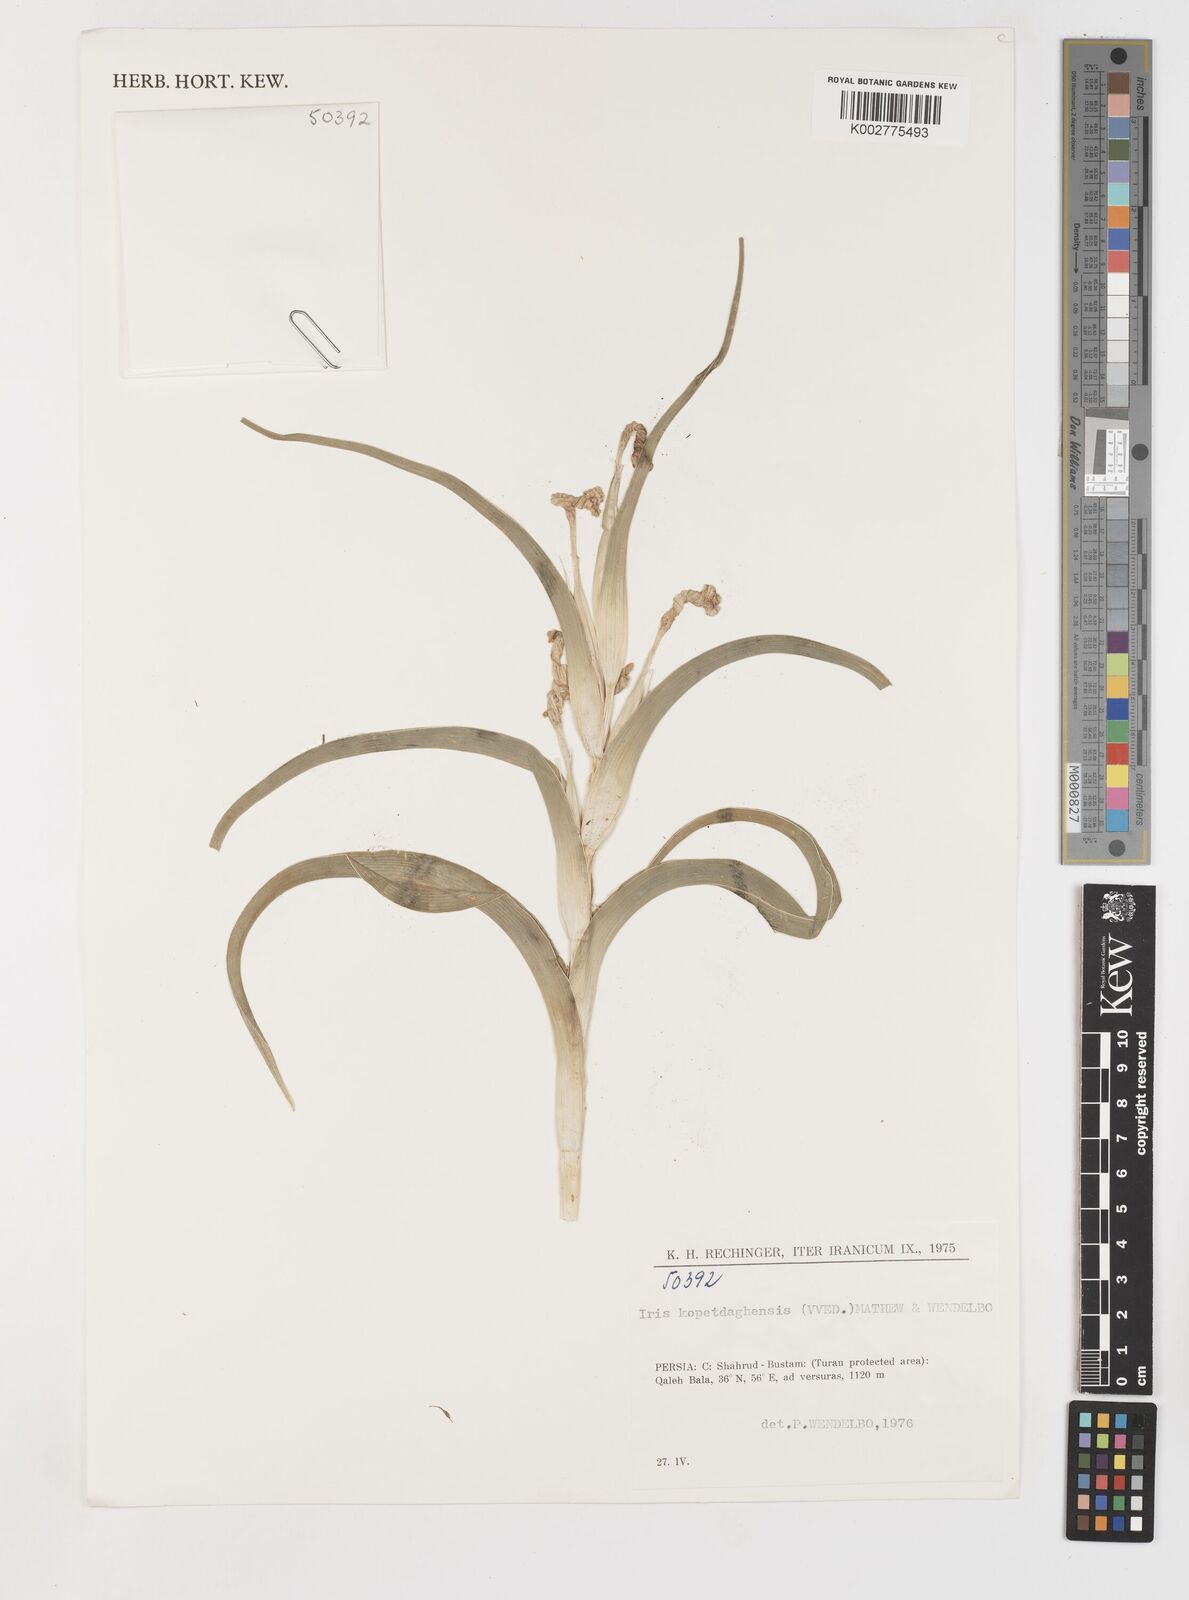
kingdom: Plantae
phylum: Tracheophyta
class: Liliopsida
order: Asparagales
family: Iridaceae
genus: Iris
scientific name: Iris kopetdagensis
